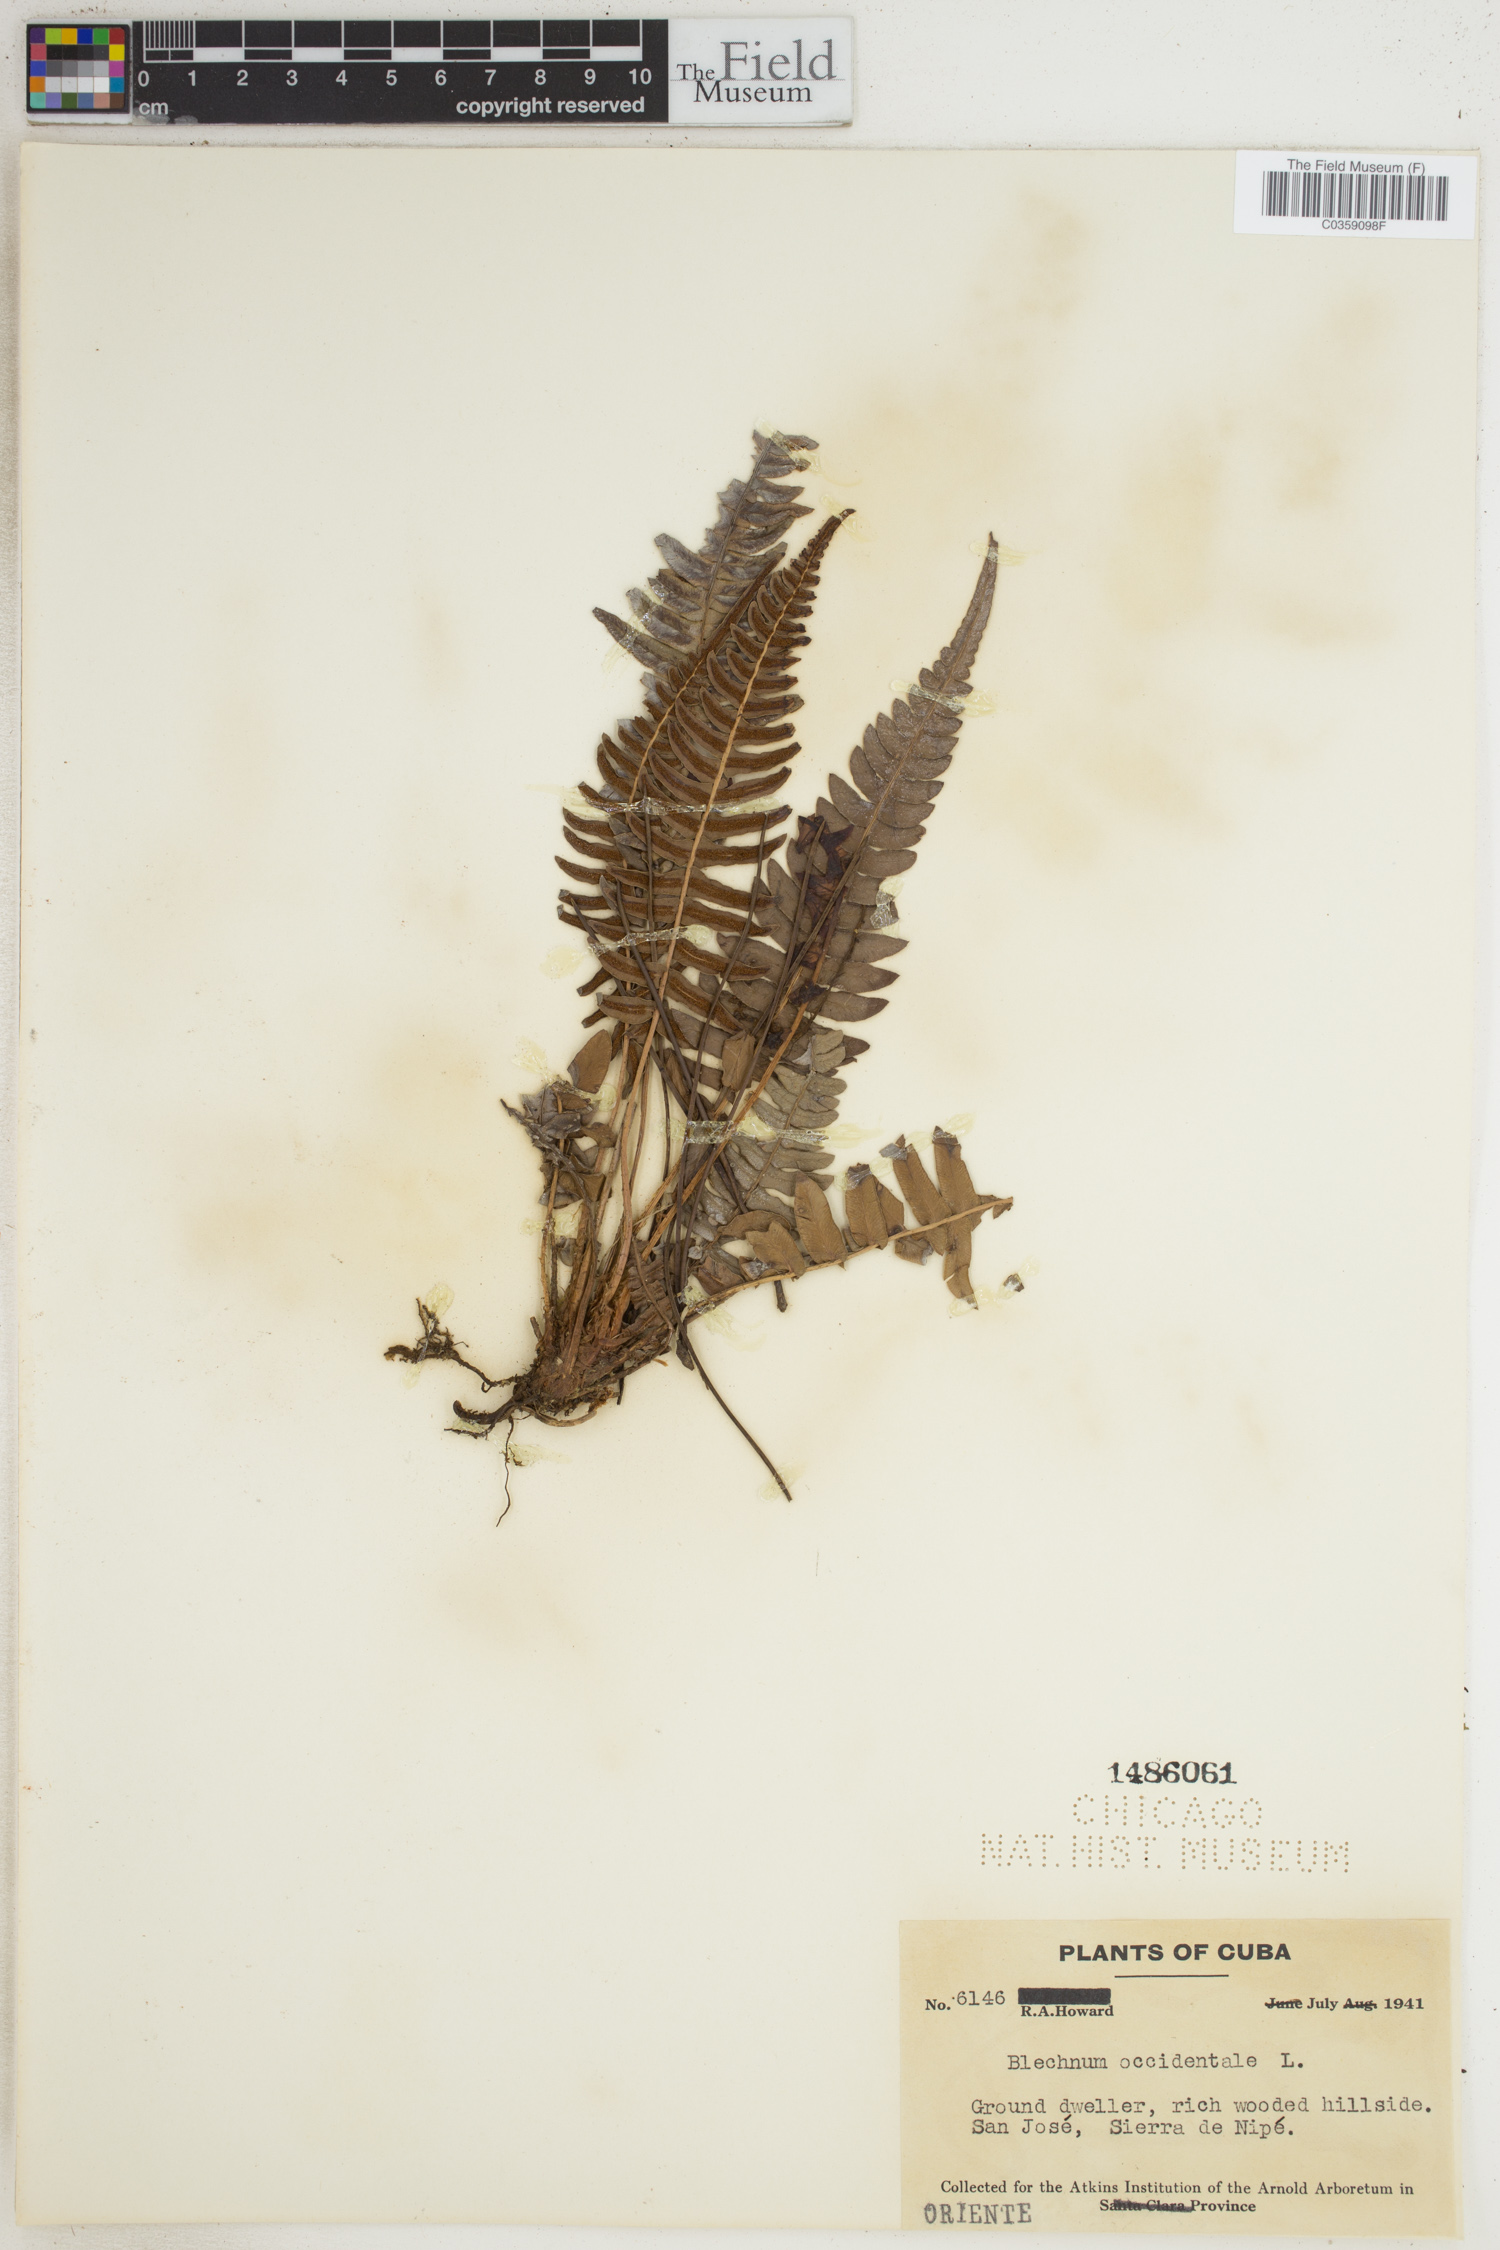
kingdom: Plantae
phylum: Tracheophyta
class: Polypodiopsida
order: Polypodiales
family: Blechnaceae
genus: Blechnum
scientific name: Blechnum occidentale
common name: Hammock fern
